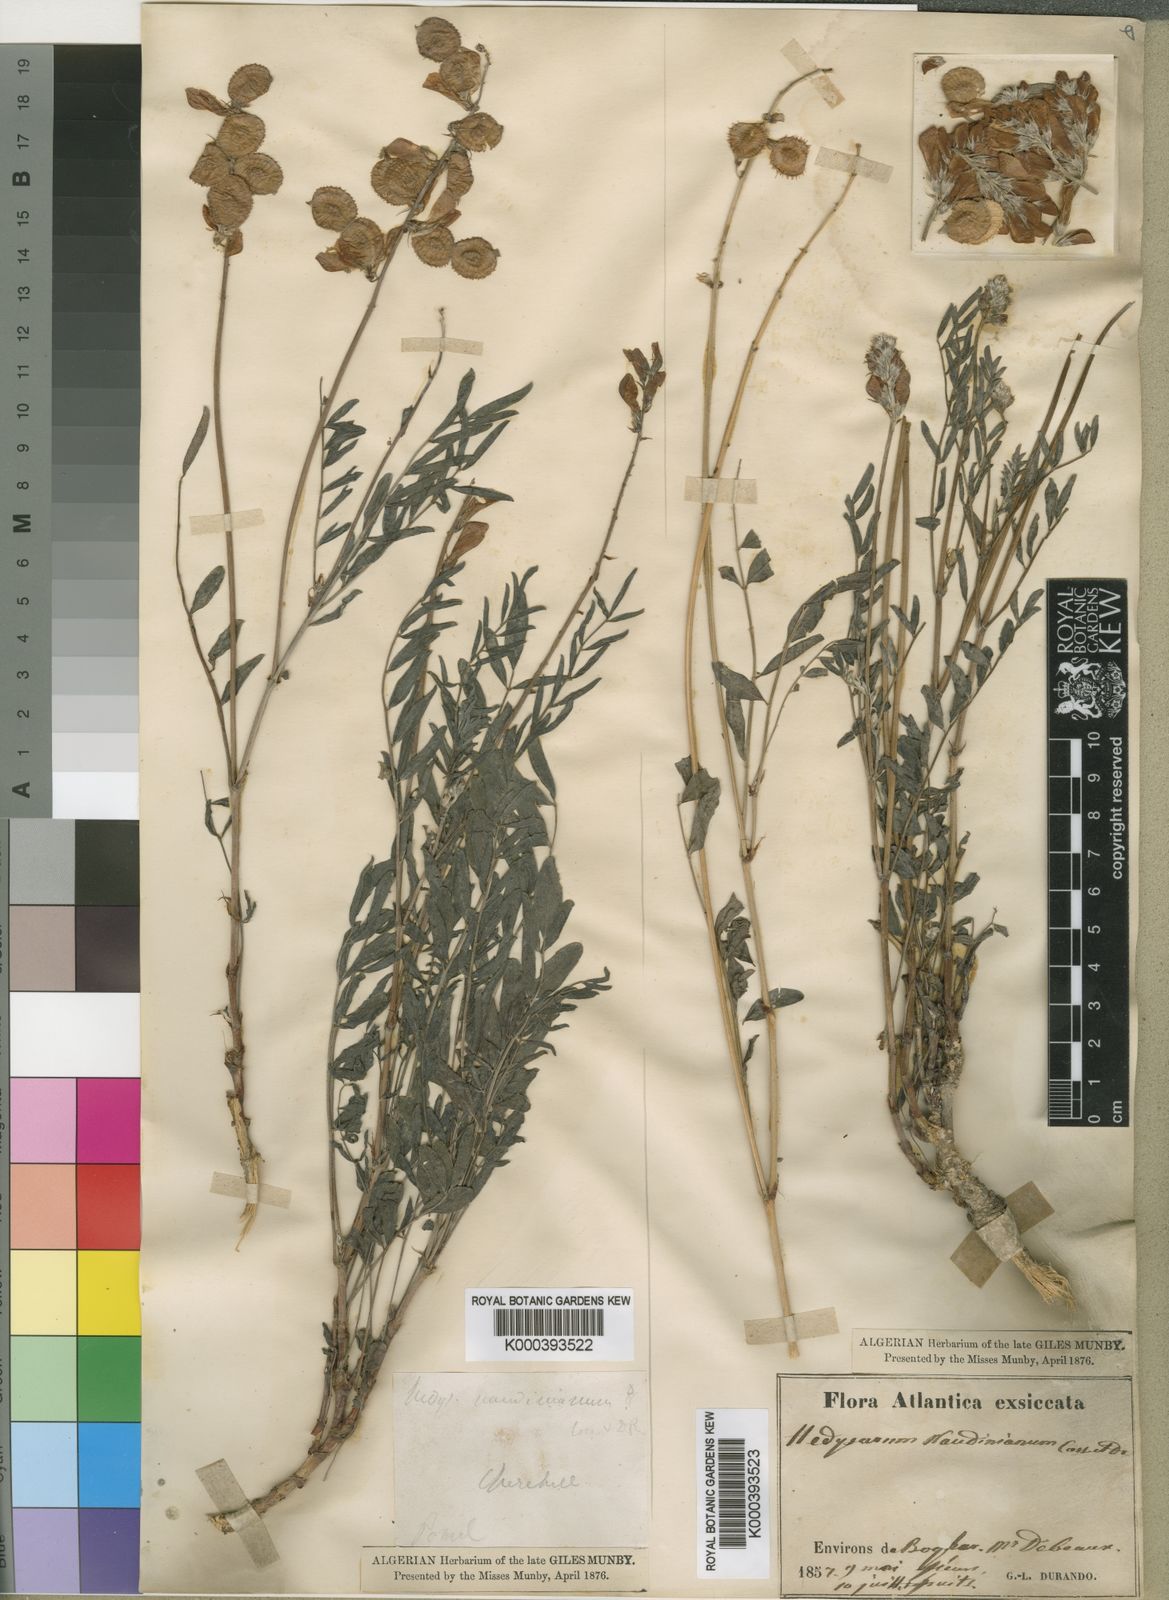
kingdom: Plantae
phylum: Tracheophyta
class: Magnoliopsida
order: Fabales
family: Fabaceae
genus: Hedysarum
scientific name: Hedysarum naudinianum
